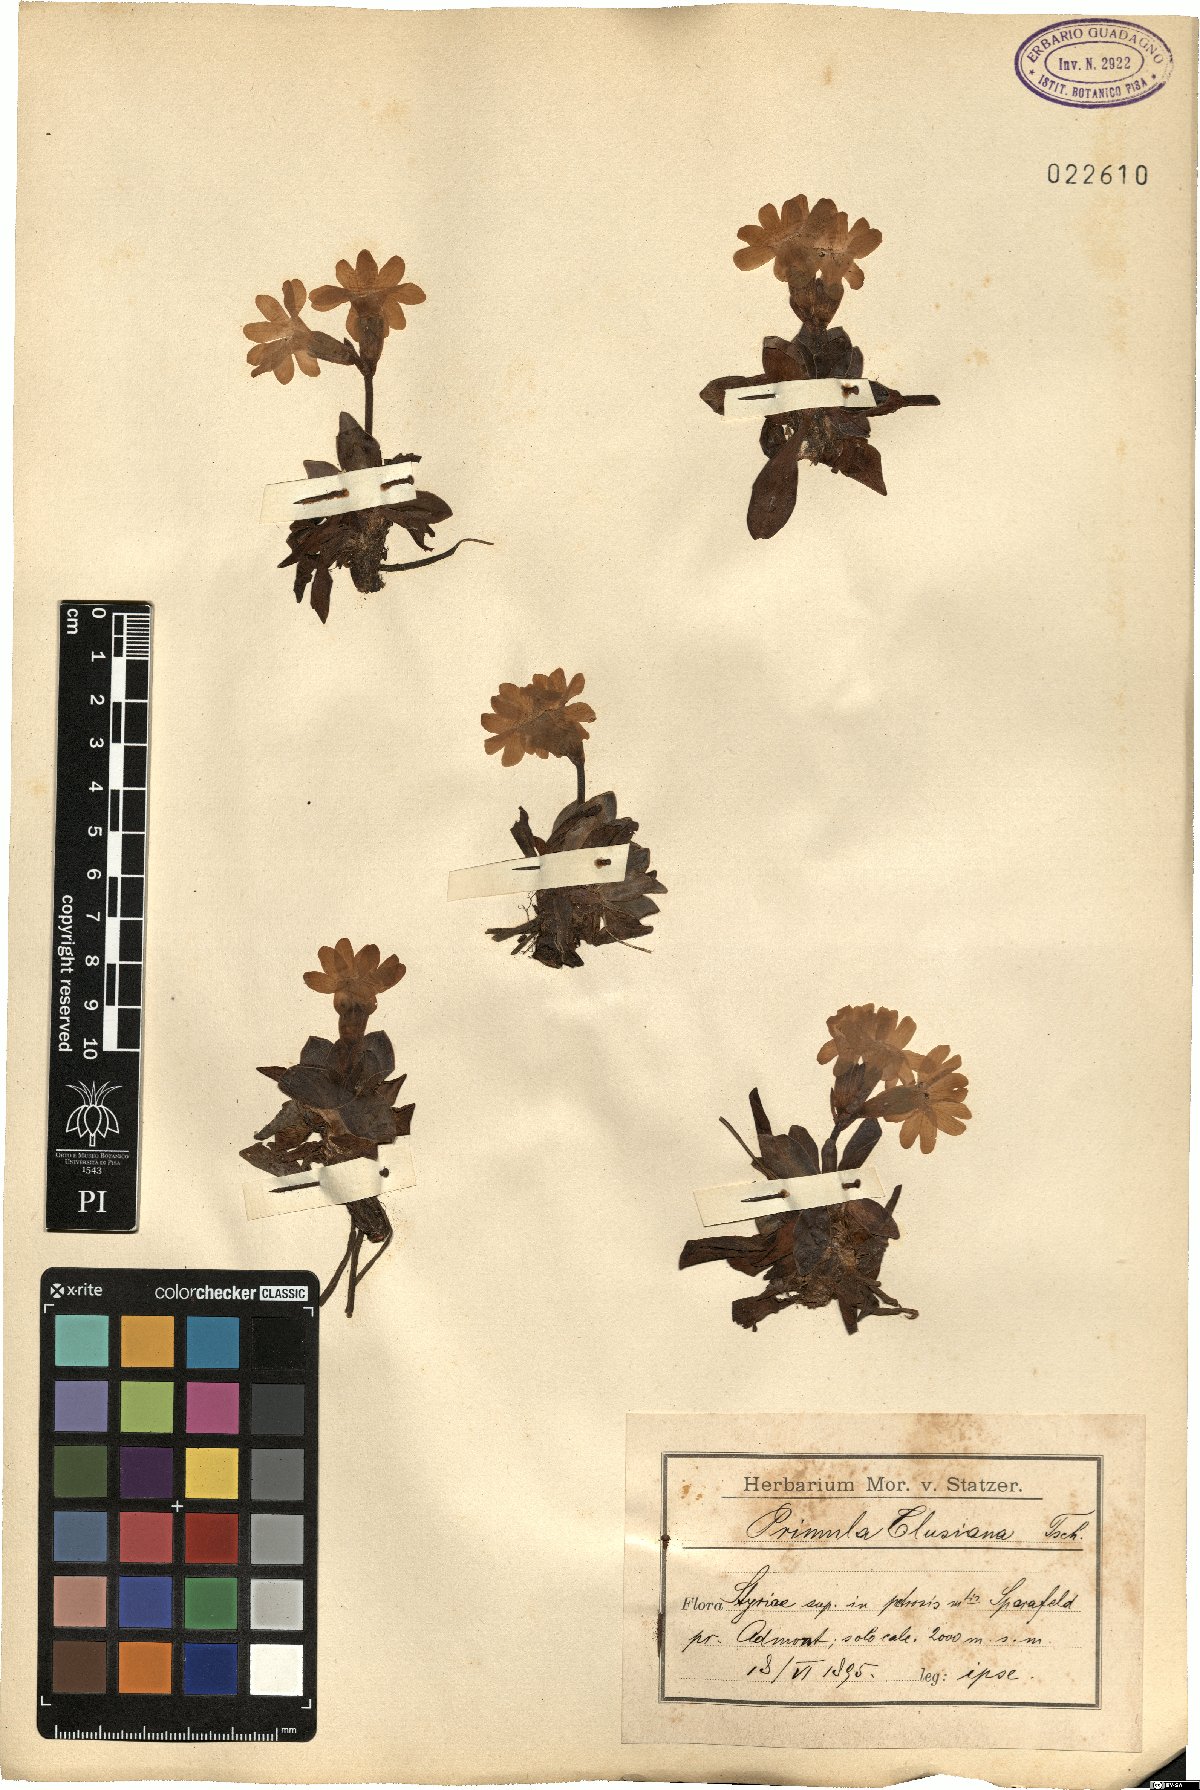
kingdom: Plantae
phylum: Tracheophyta
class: Magnoliopsida
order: Ericales
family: Primulaceae
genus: Primula
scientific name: Primula clusiana
